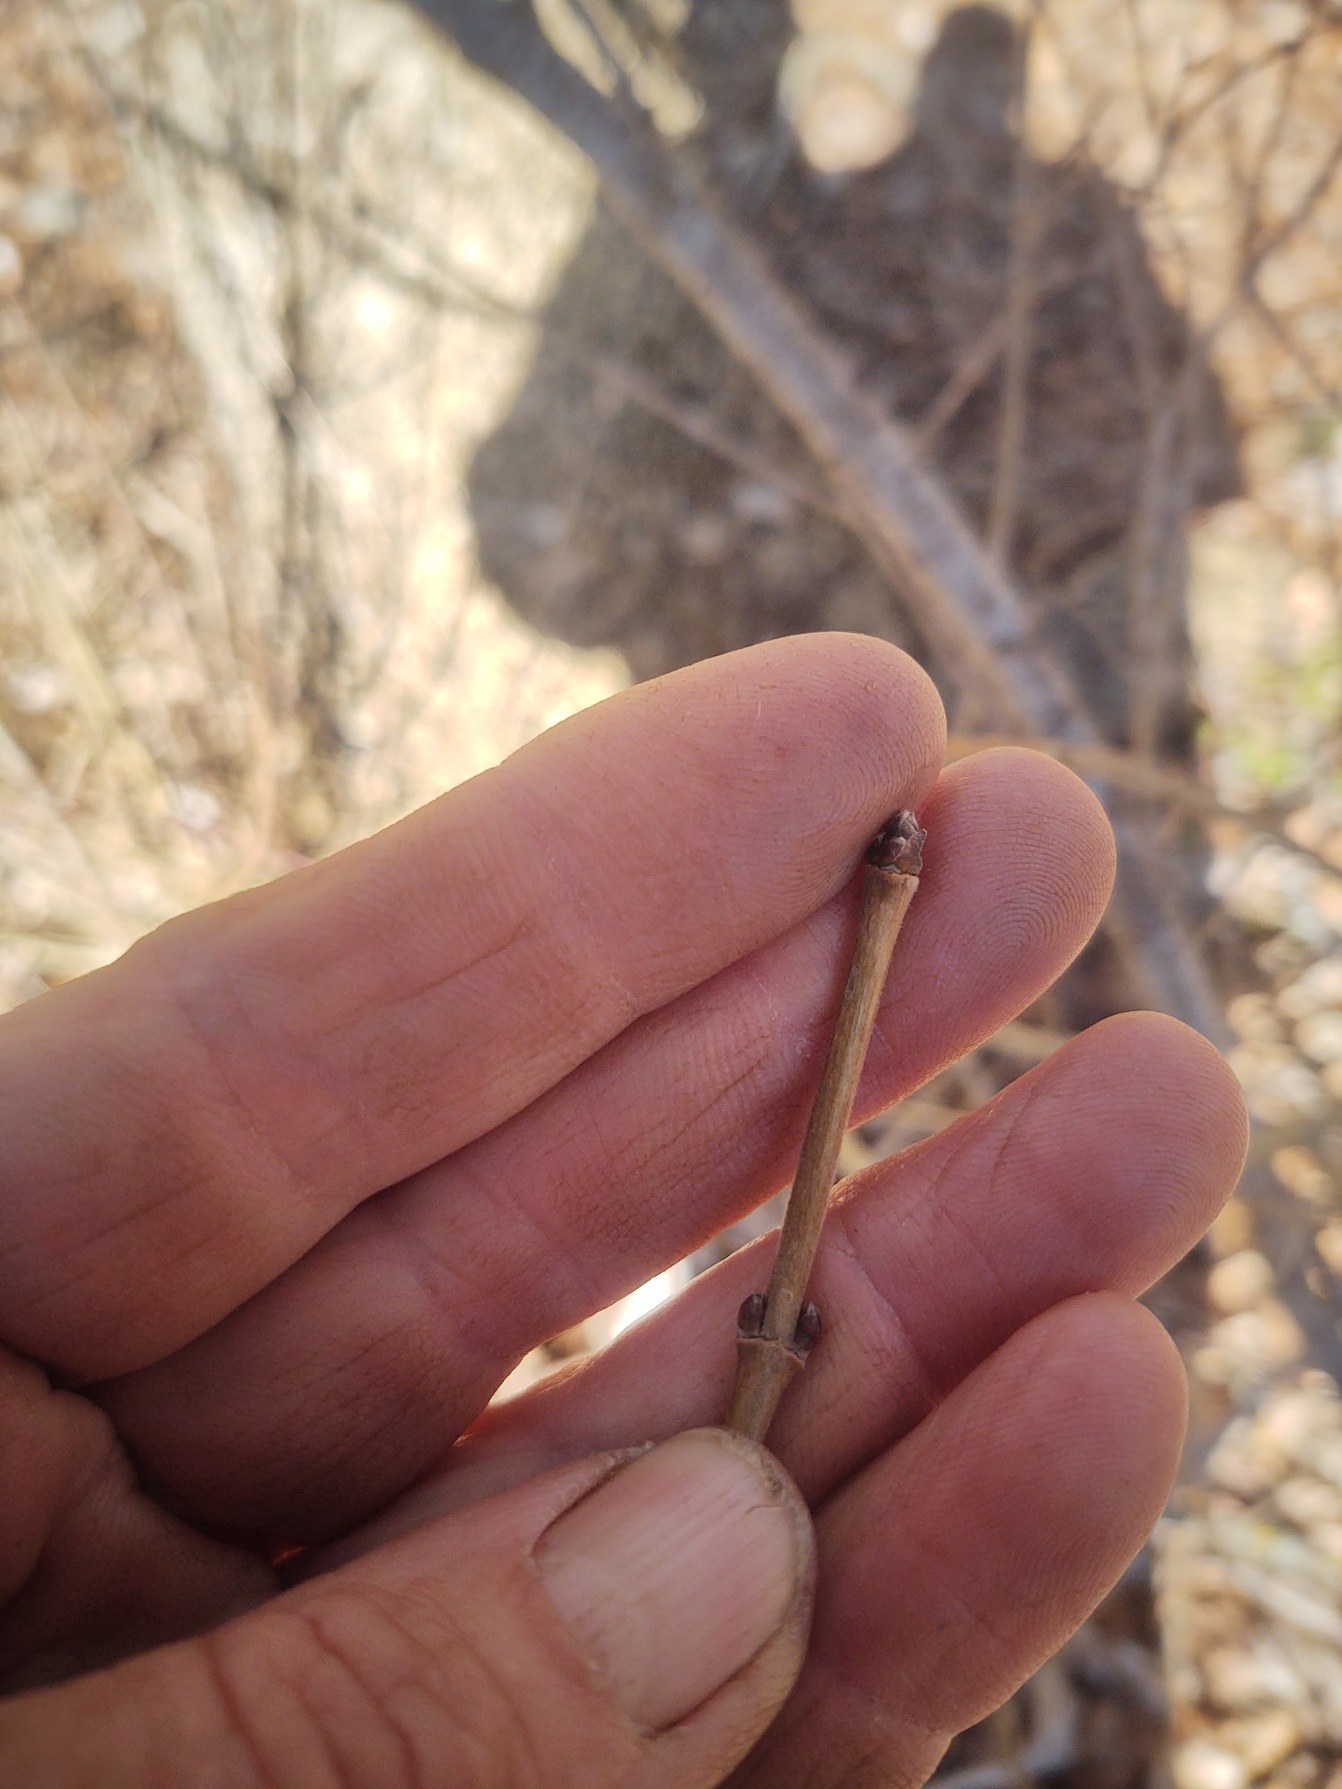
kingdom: Plantae
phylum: Tracheophyta
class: Magnoliopsida
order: Sapindales
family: Sapindaceae
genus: Acer
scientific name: Acer campestre
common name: Navr
